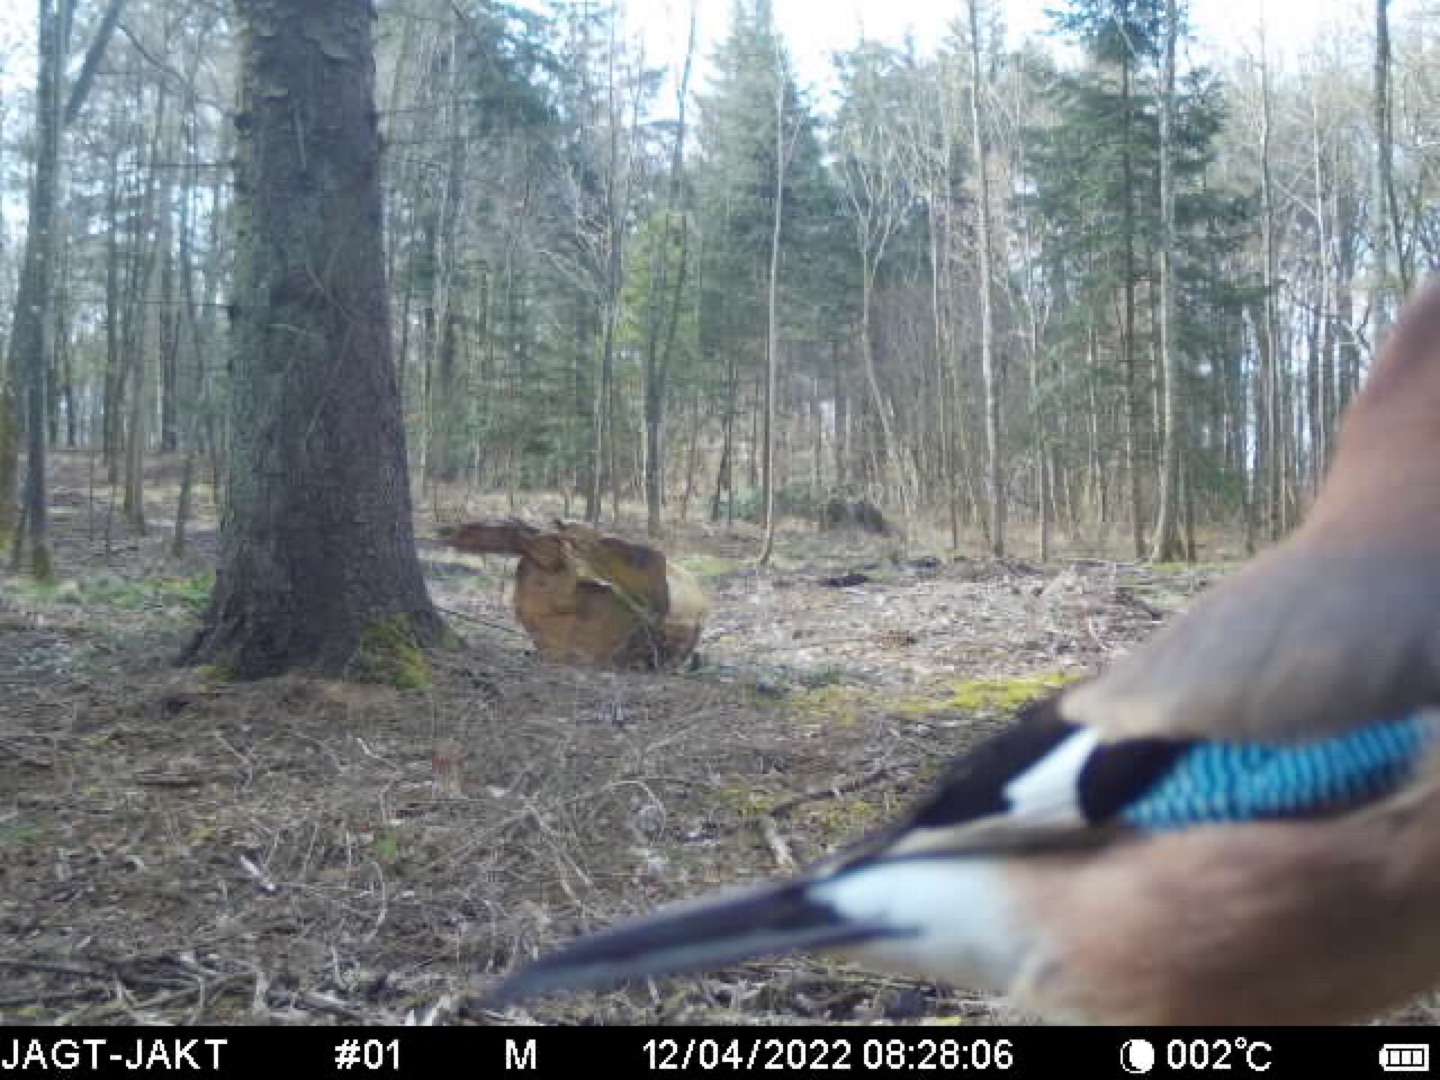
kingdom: Animalia
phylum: Chordata
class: Aves
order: Passeriformes
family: Corvidae
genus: Garrulus
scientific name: Garrulus glandarius
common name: Skovskade
